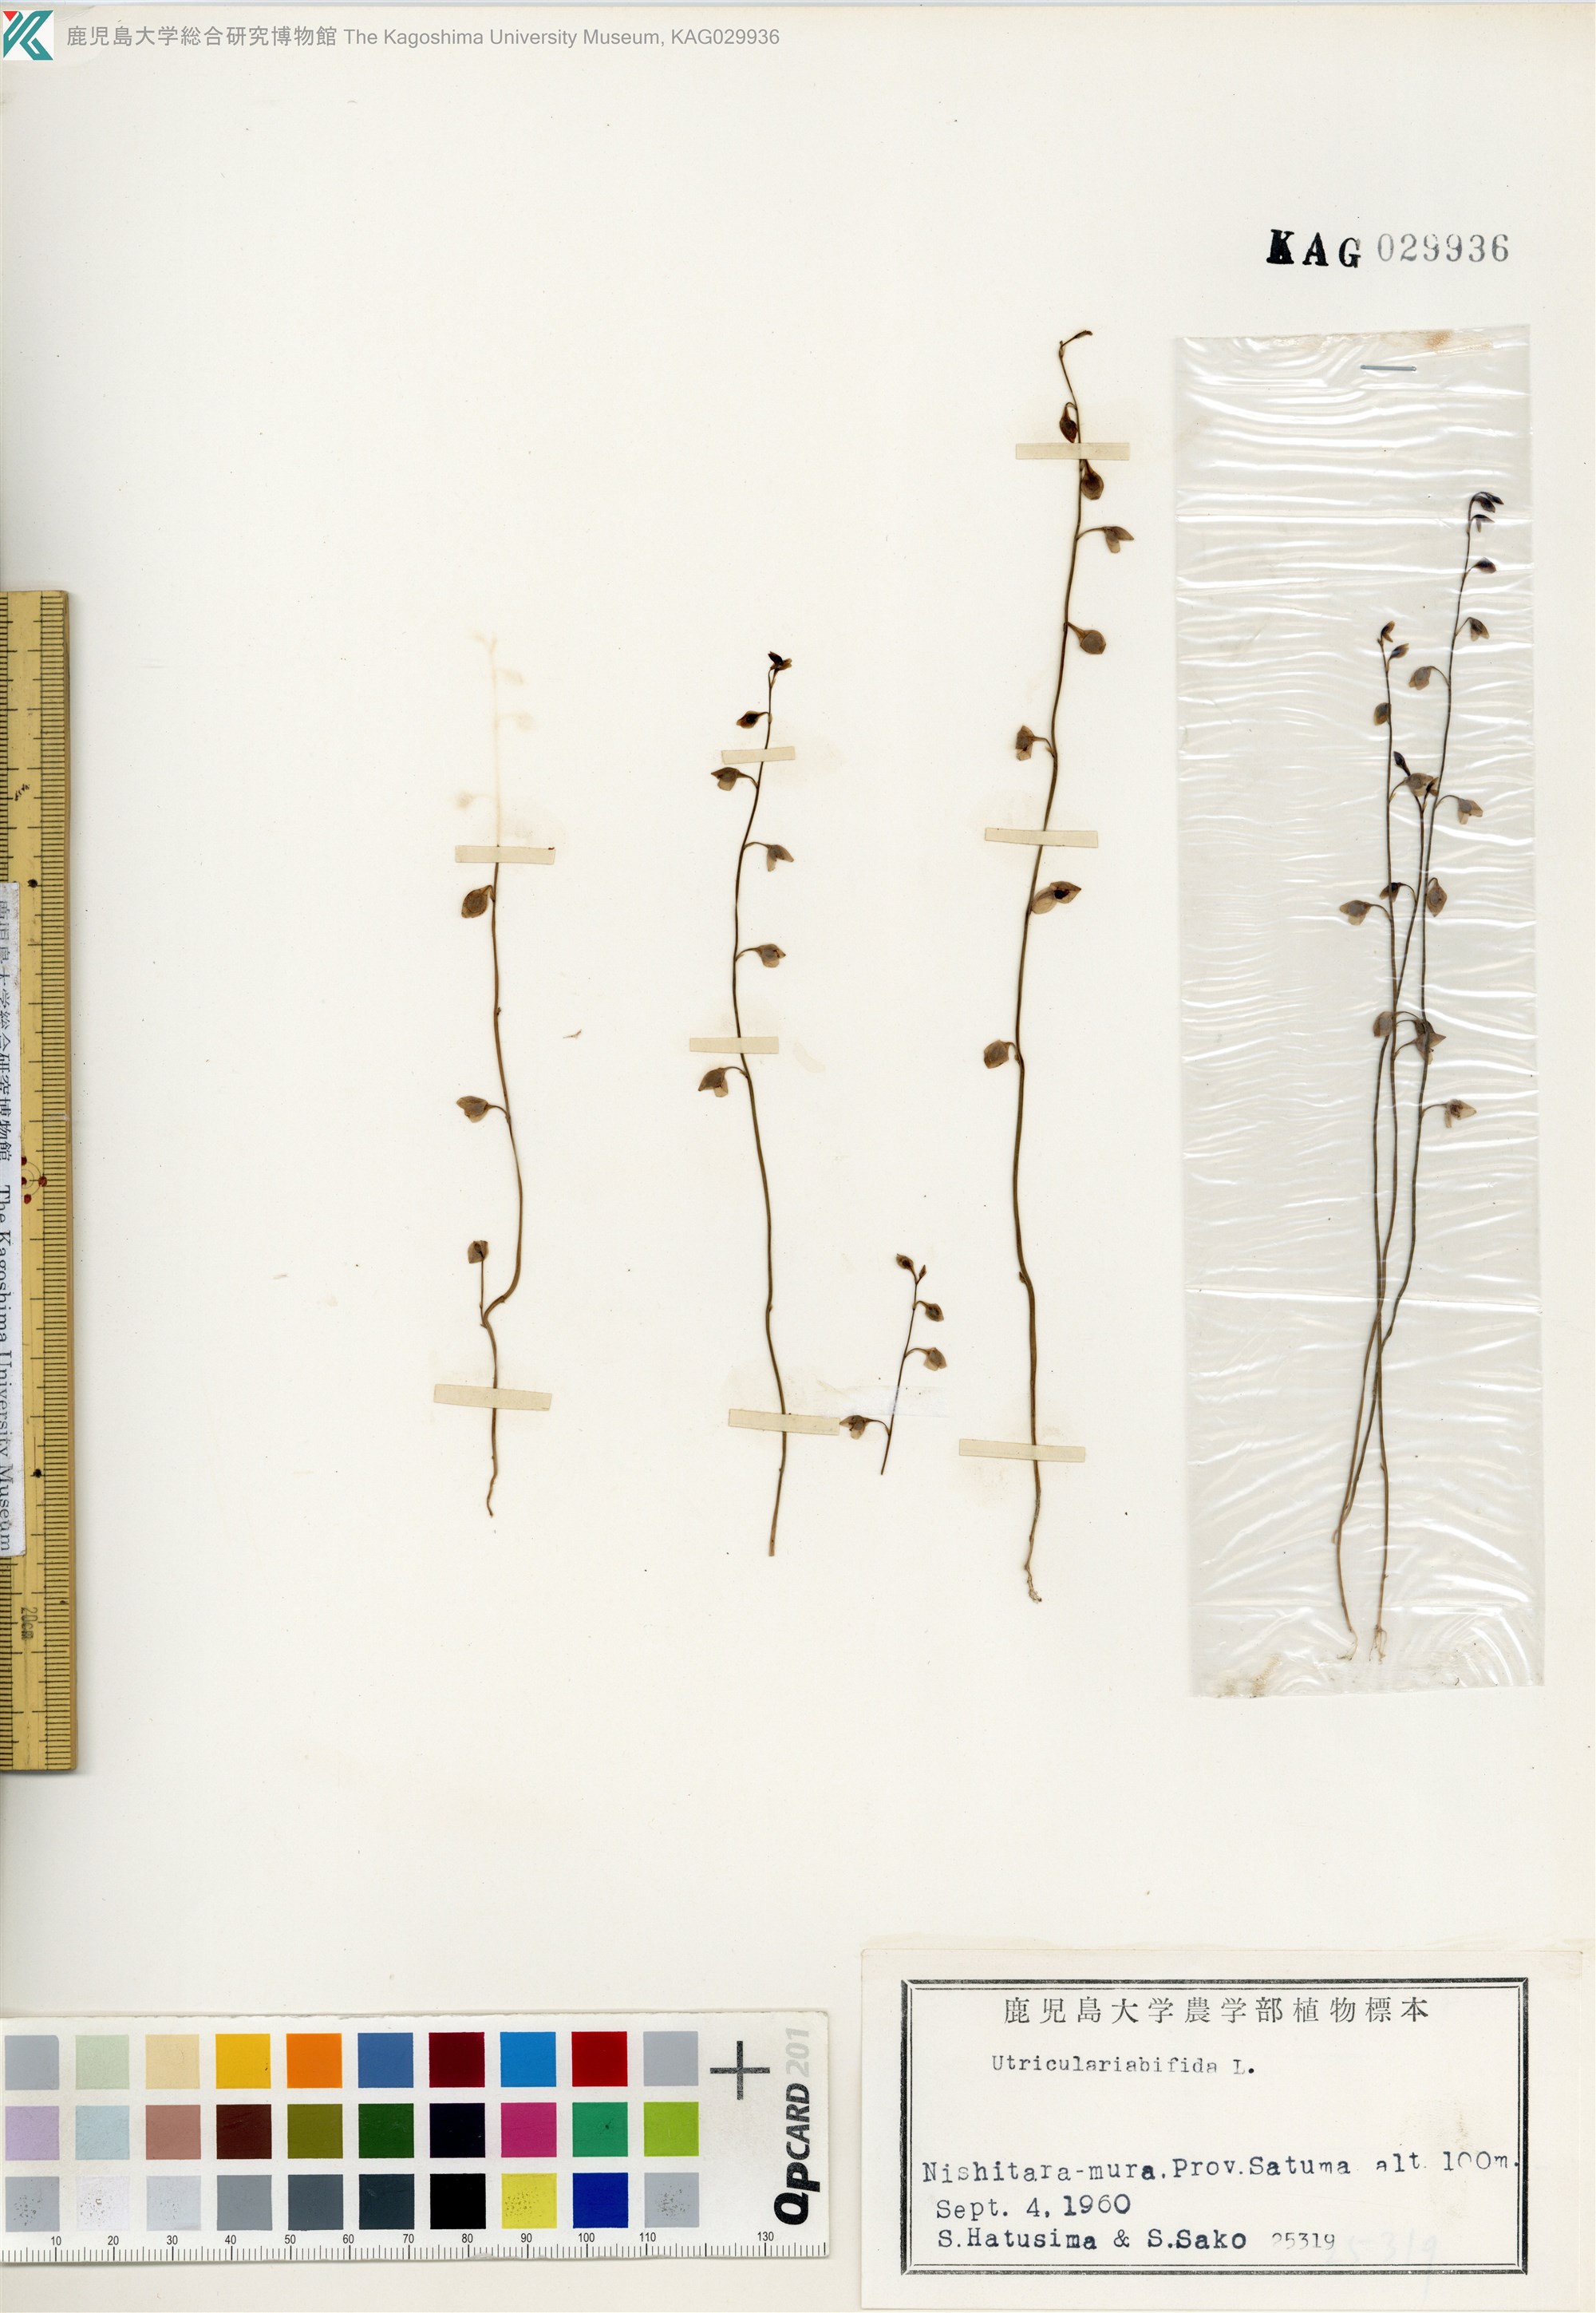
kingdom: Plantae
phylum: Tracheophyta
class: Magnoliopsida
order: Lamiales
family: Lentibulariaceae
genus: Utricularia
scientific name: Utricularia bifida
